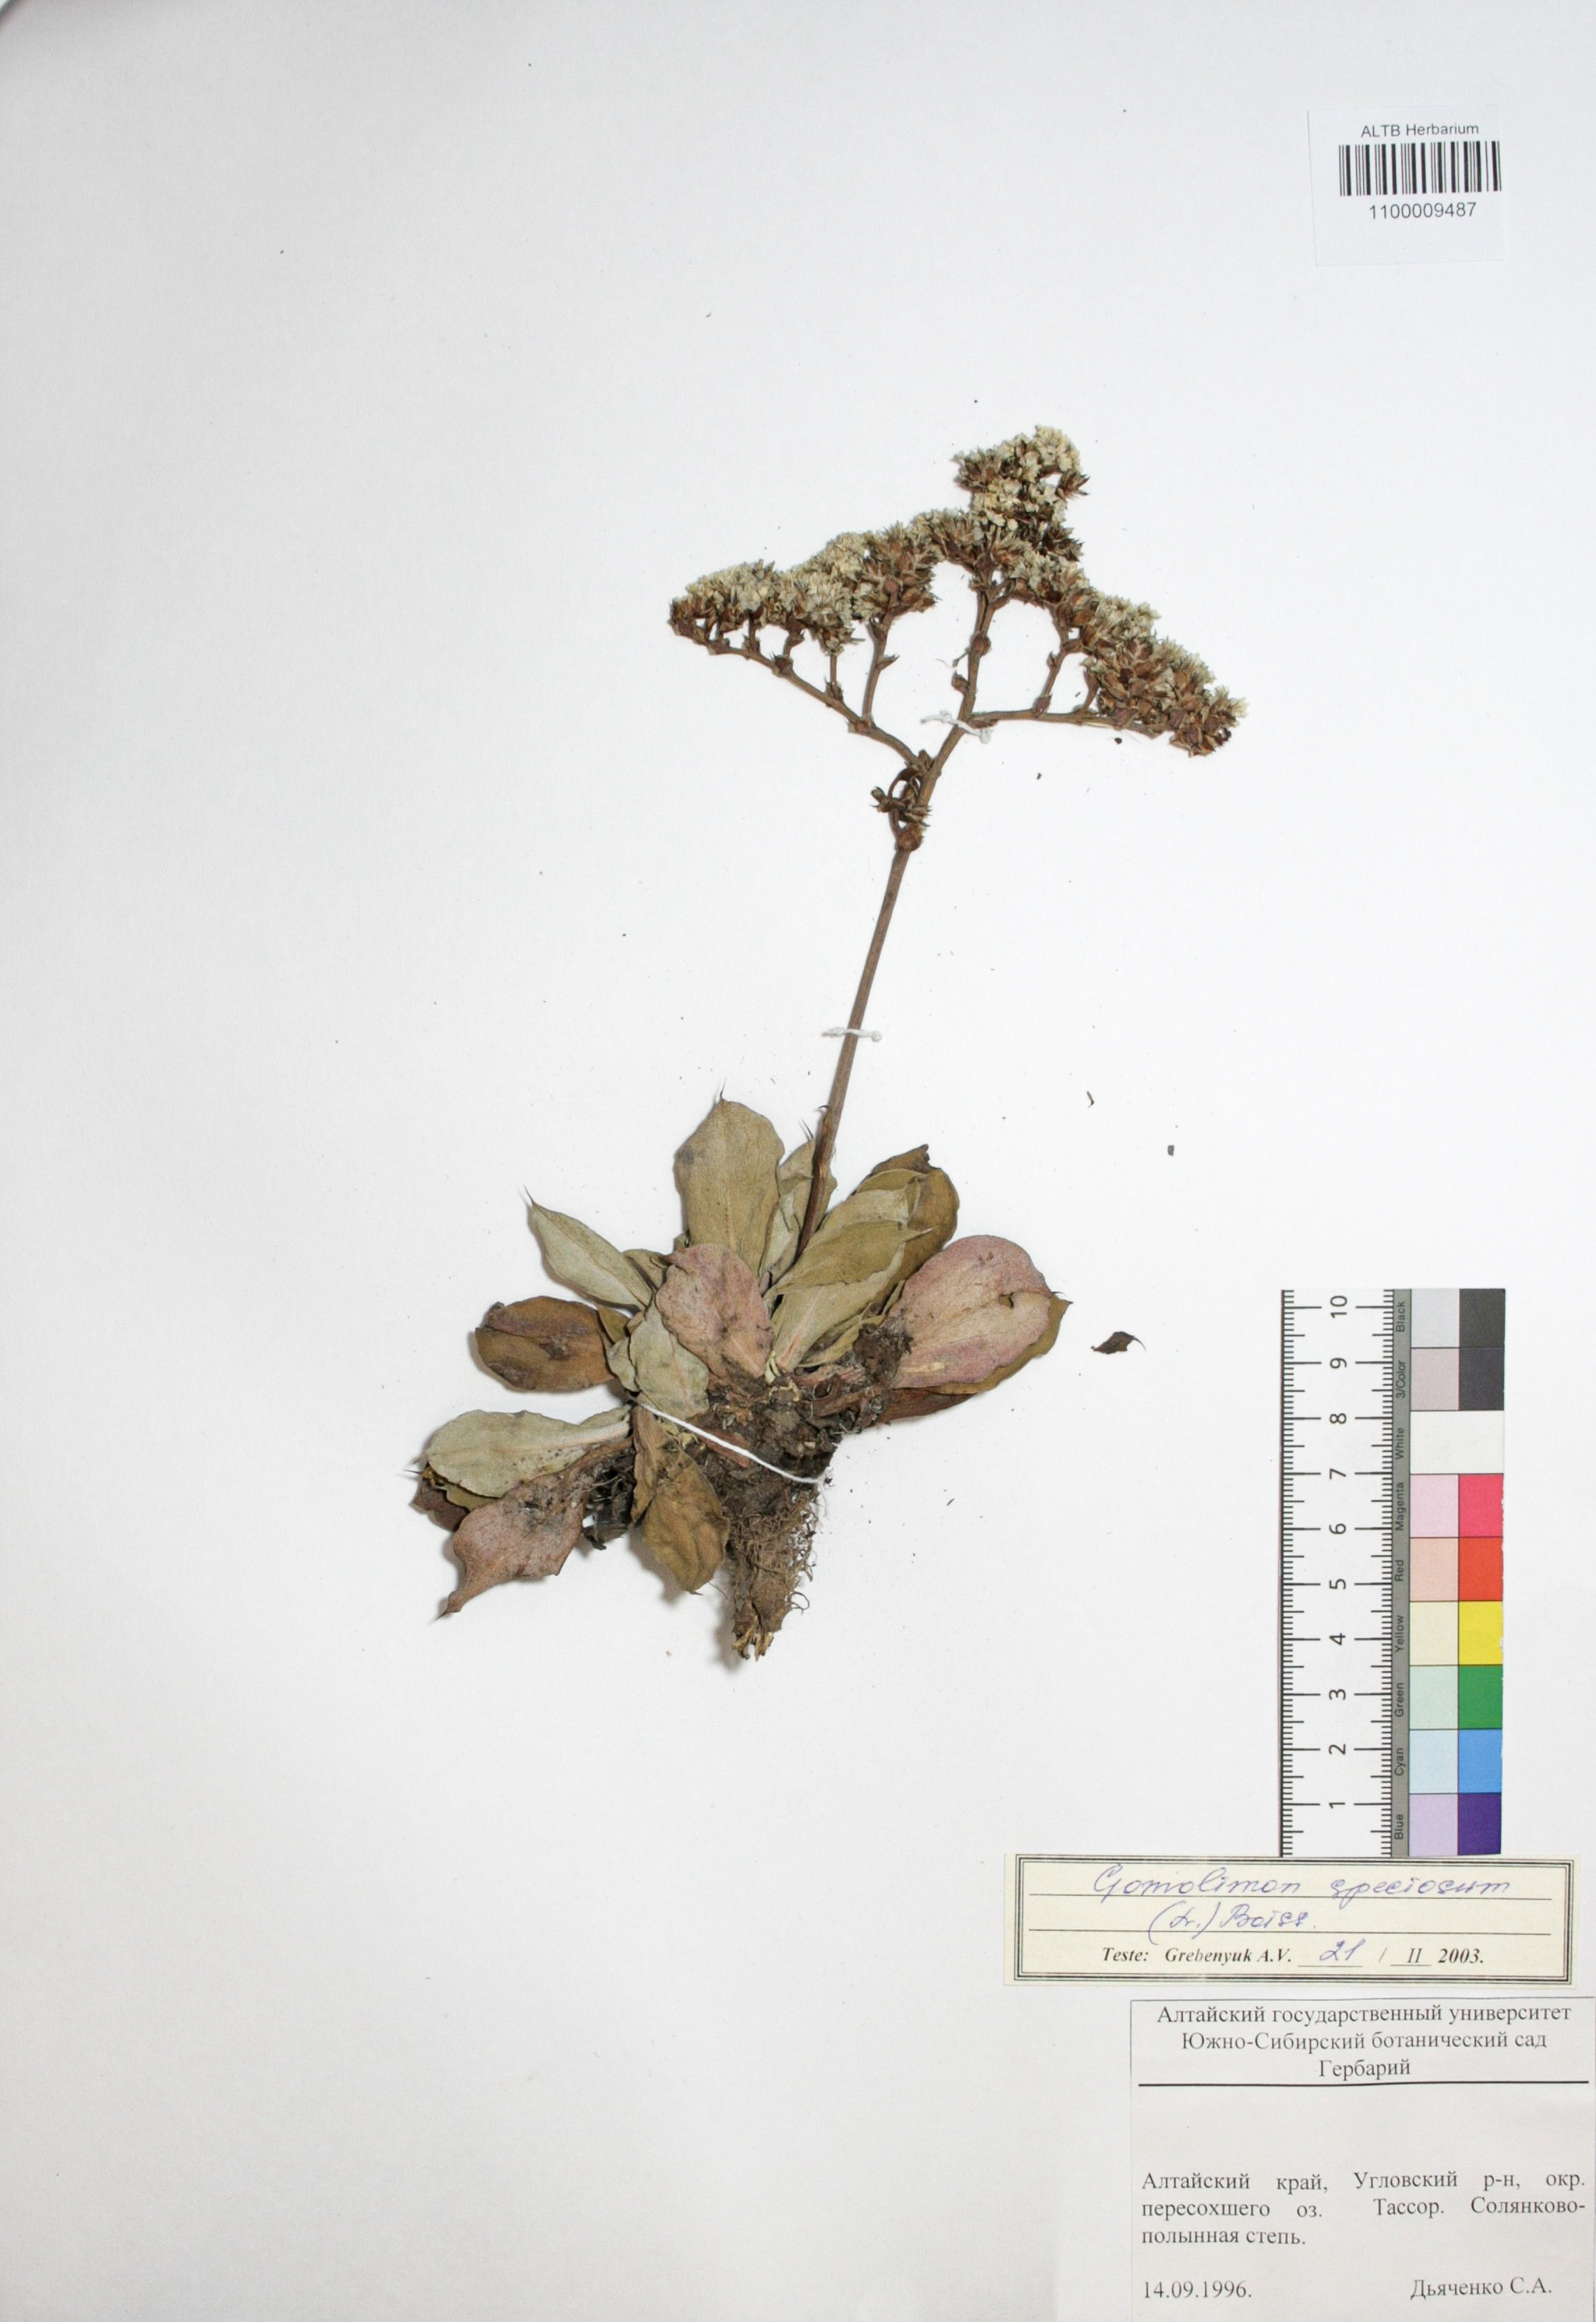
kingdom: Plantae
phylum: Tracheophyta
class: Magnoliopsida
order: Caryophyllales
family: Plumbaginaceae
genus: Goniolimon
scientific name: Goniolimon speciosum
